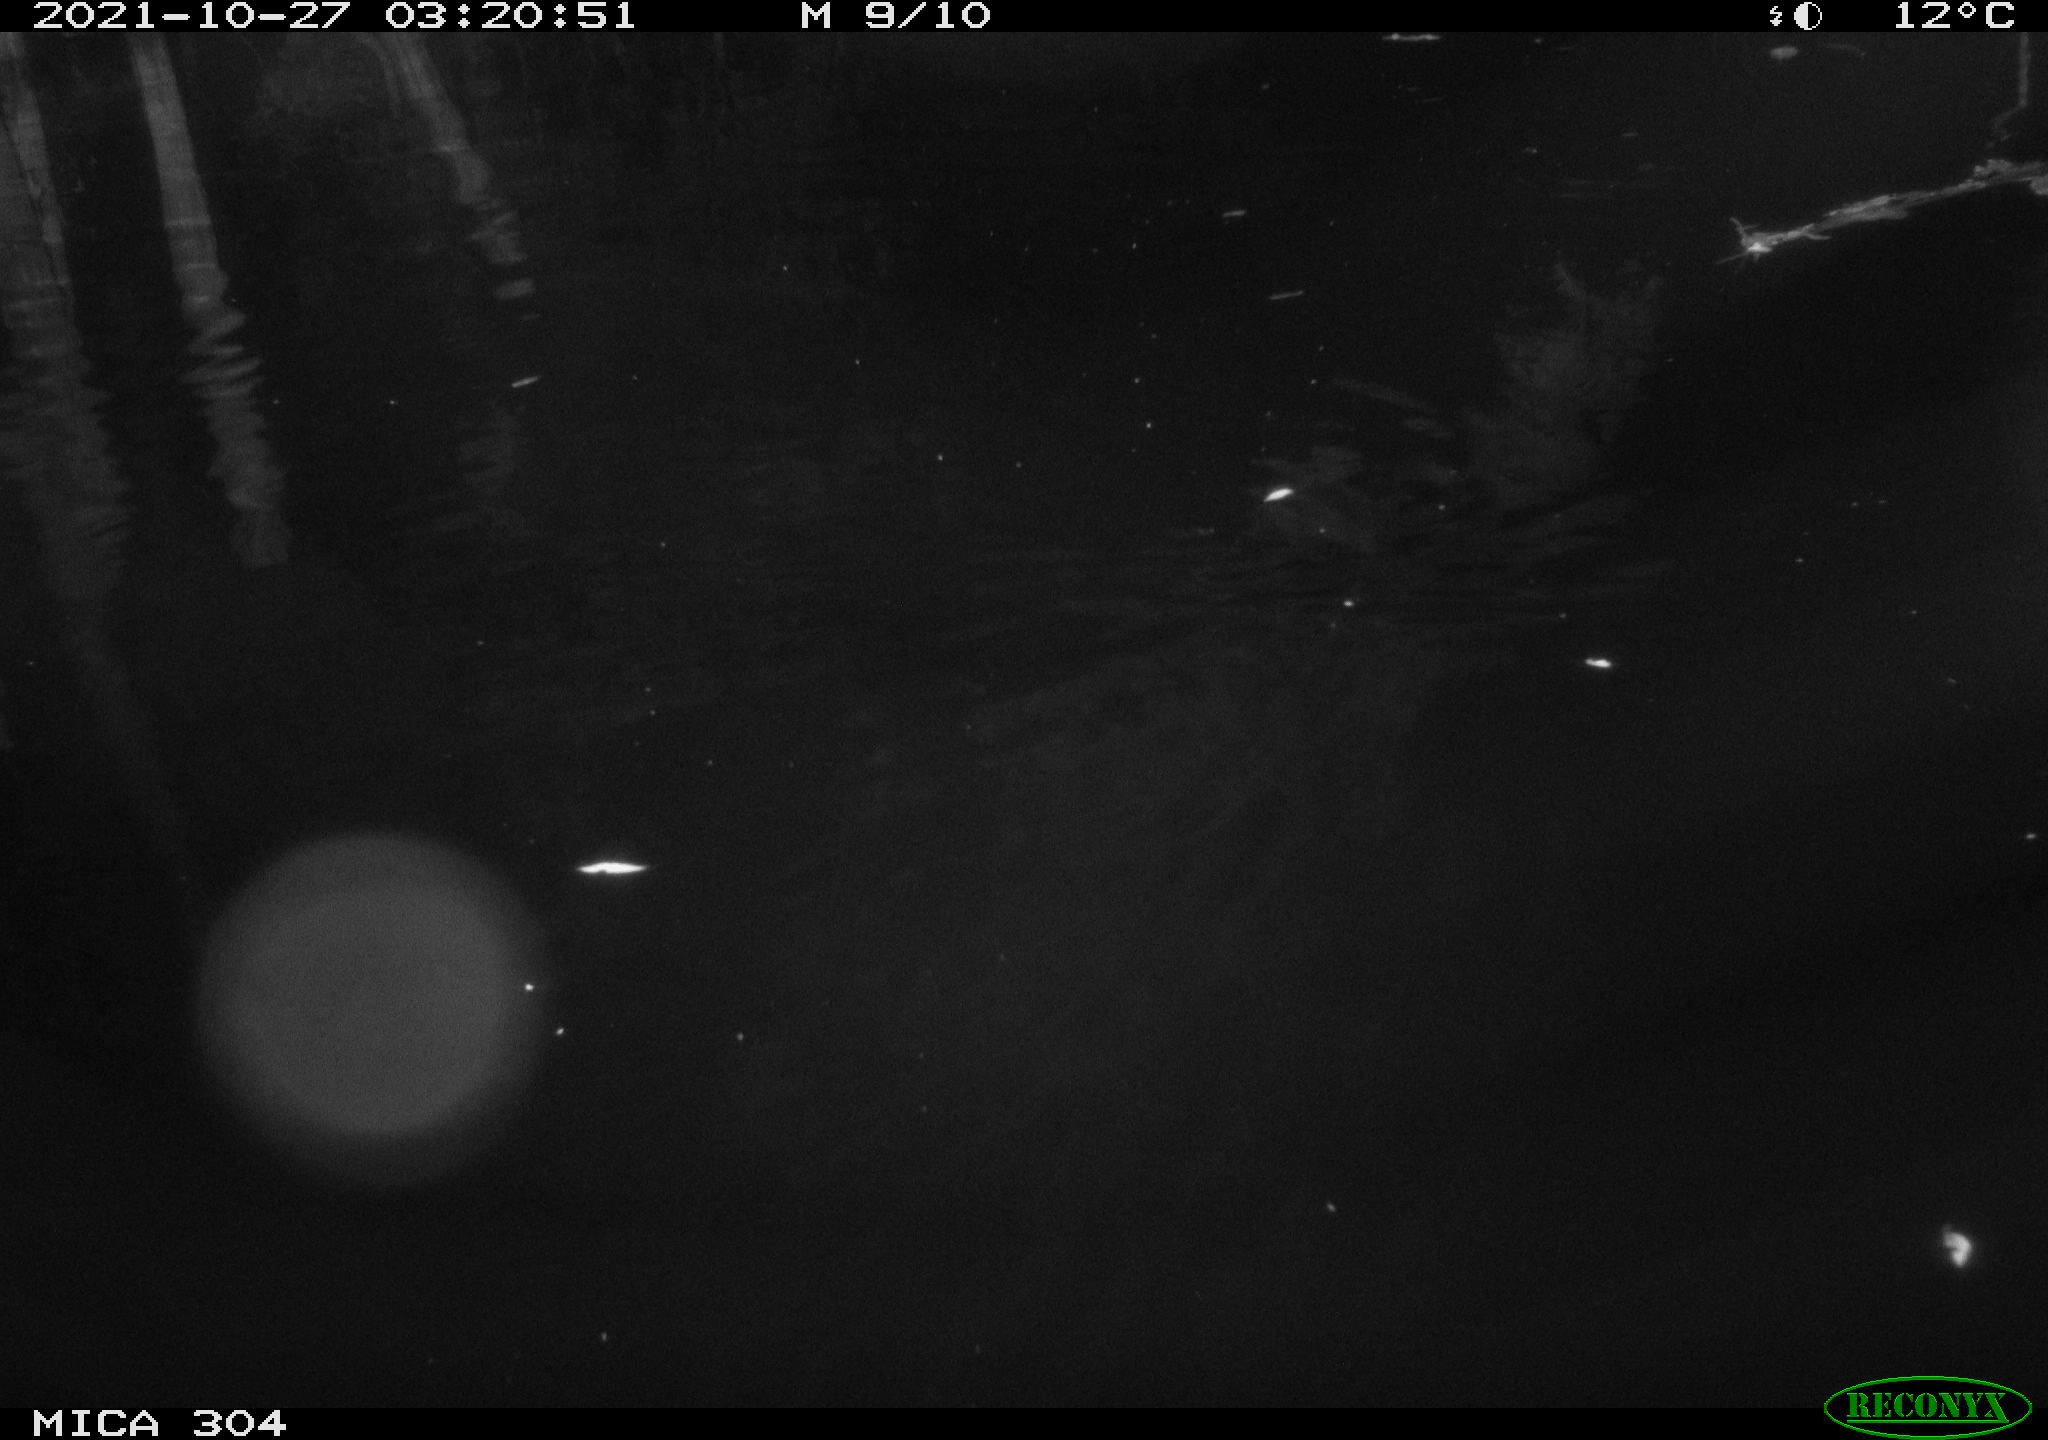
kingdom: Animalia
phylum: Chordata
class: Mammalia
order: Rodentia
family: Muridae
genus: Rattus
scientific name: Rattus norvegicus
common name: Brown rat
